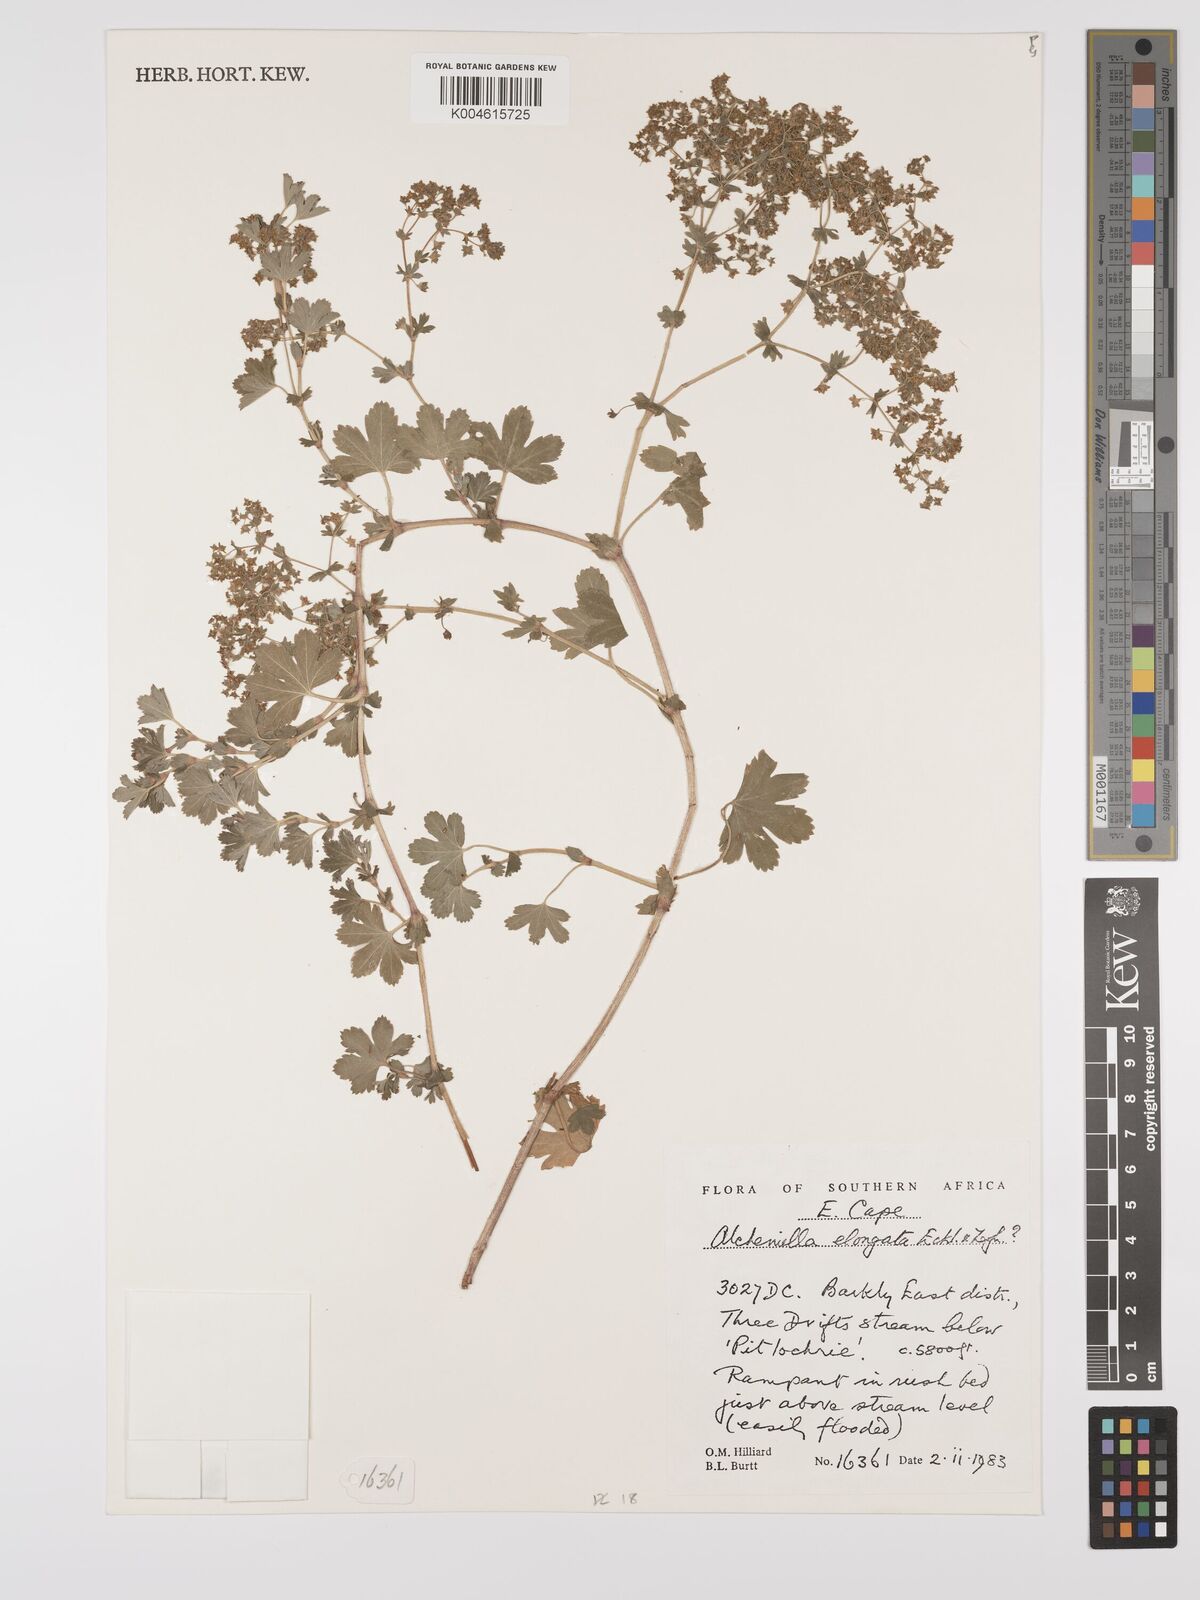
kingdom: Plantae
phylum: Tracheophyta
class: Magnoliopsida
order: Rosales
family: Rosaceae
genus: Alchemilla
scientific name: Alchemilla elongata
